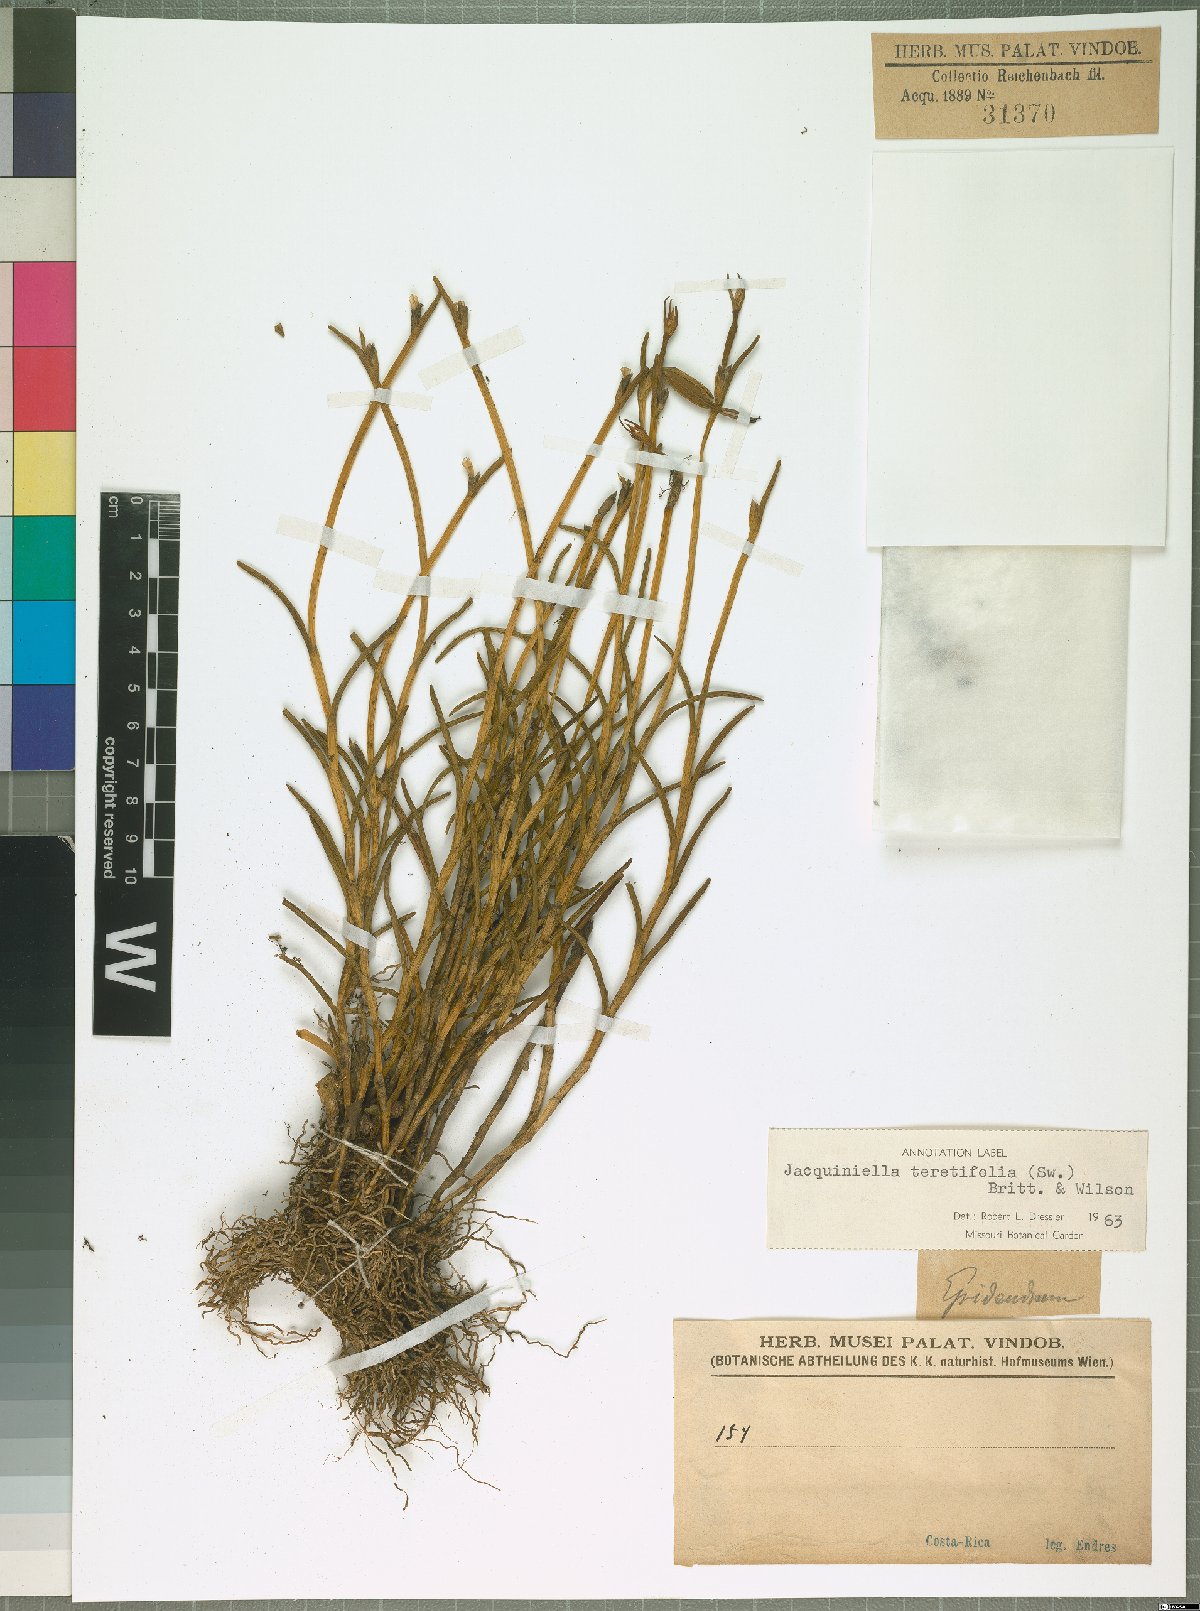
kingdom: Plantae
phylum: Tracheophyta
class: Liliopsida
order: Asparagales
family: Orchidaceae
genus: Jacquiniella
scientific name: Jacquiniella teretifolia
